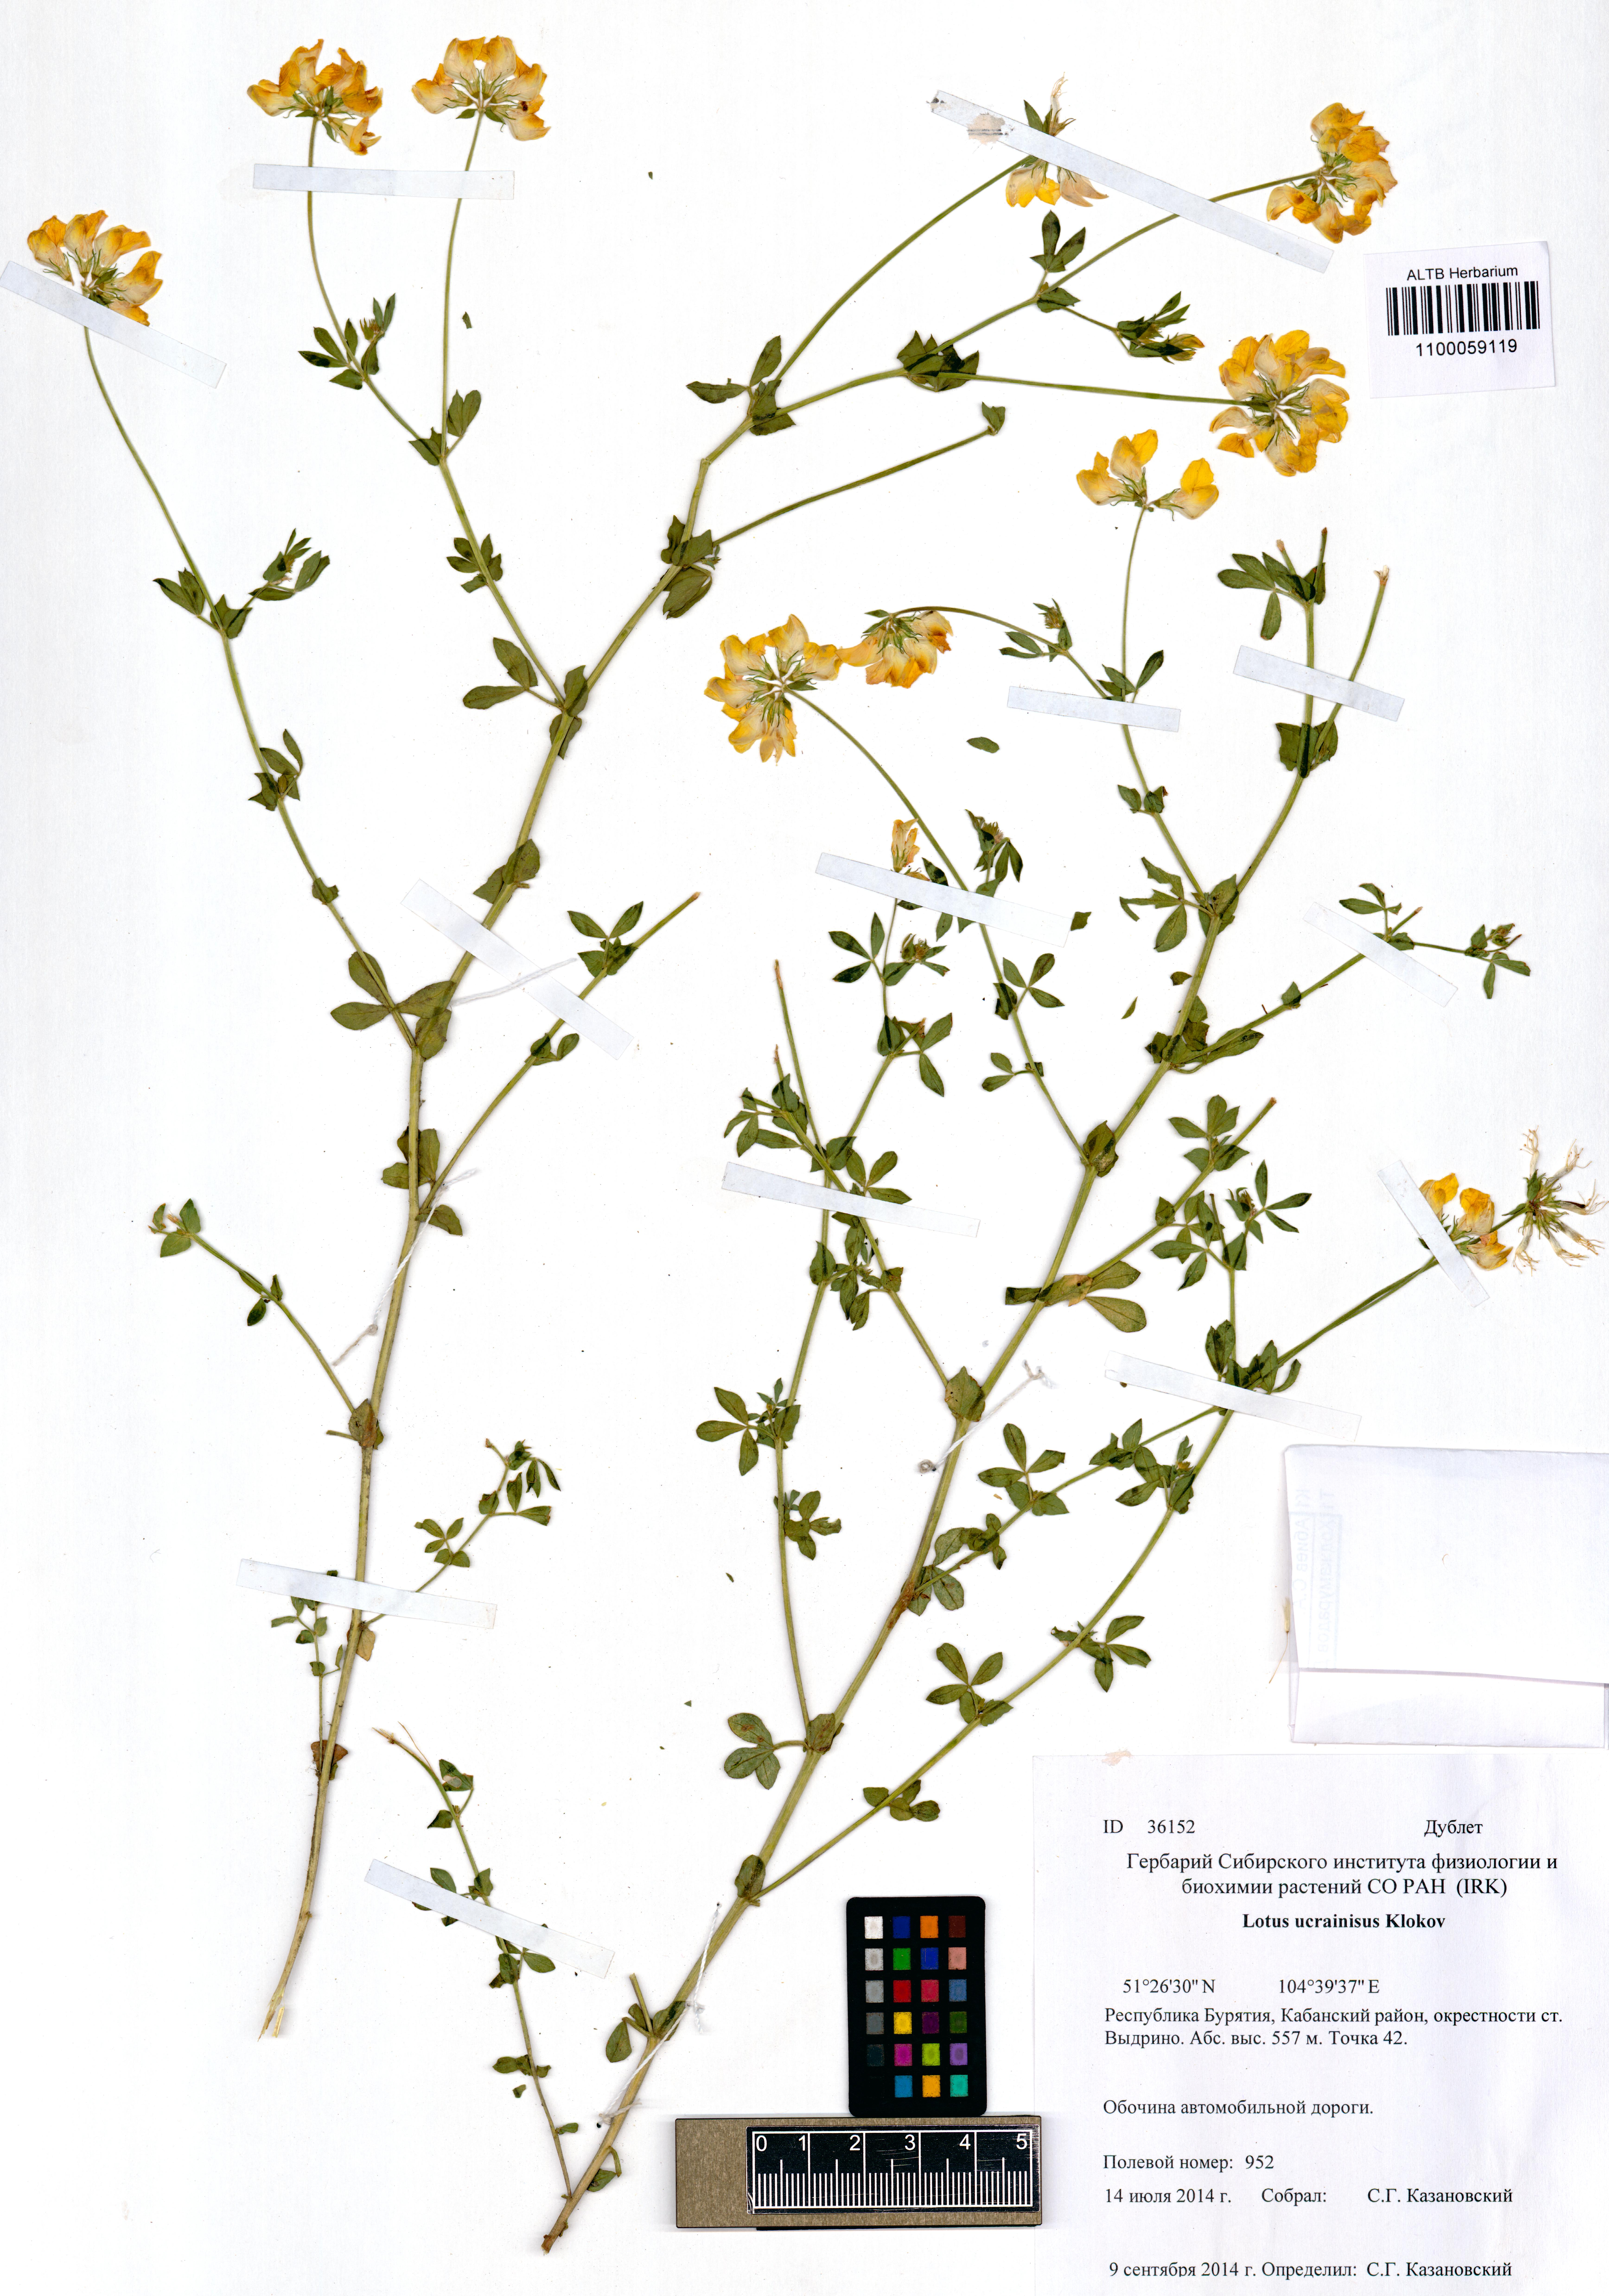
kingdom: Plantae
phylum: Tracheophyta
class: Magnoliopsida
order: Fabales
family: Fabaceae
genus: Lotus
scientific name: Lotus ucrainicus
